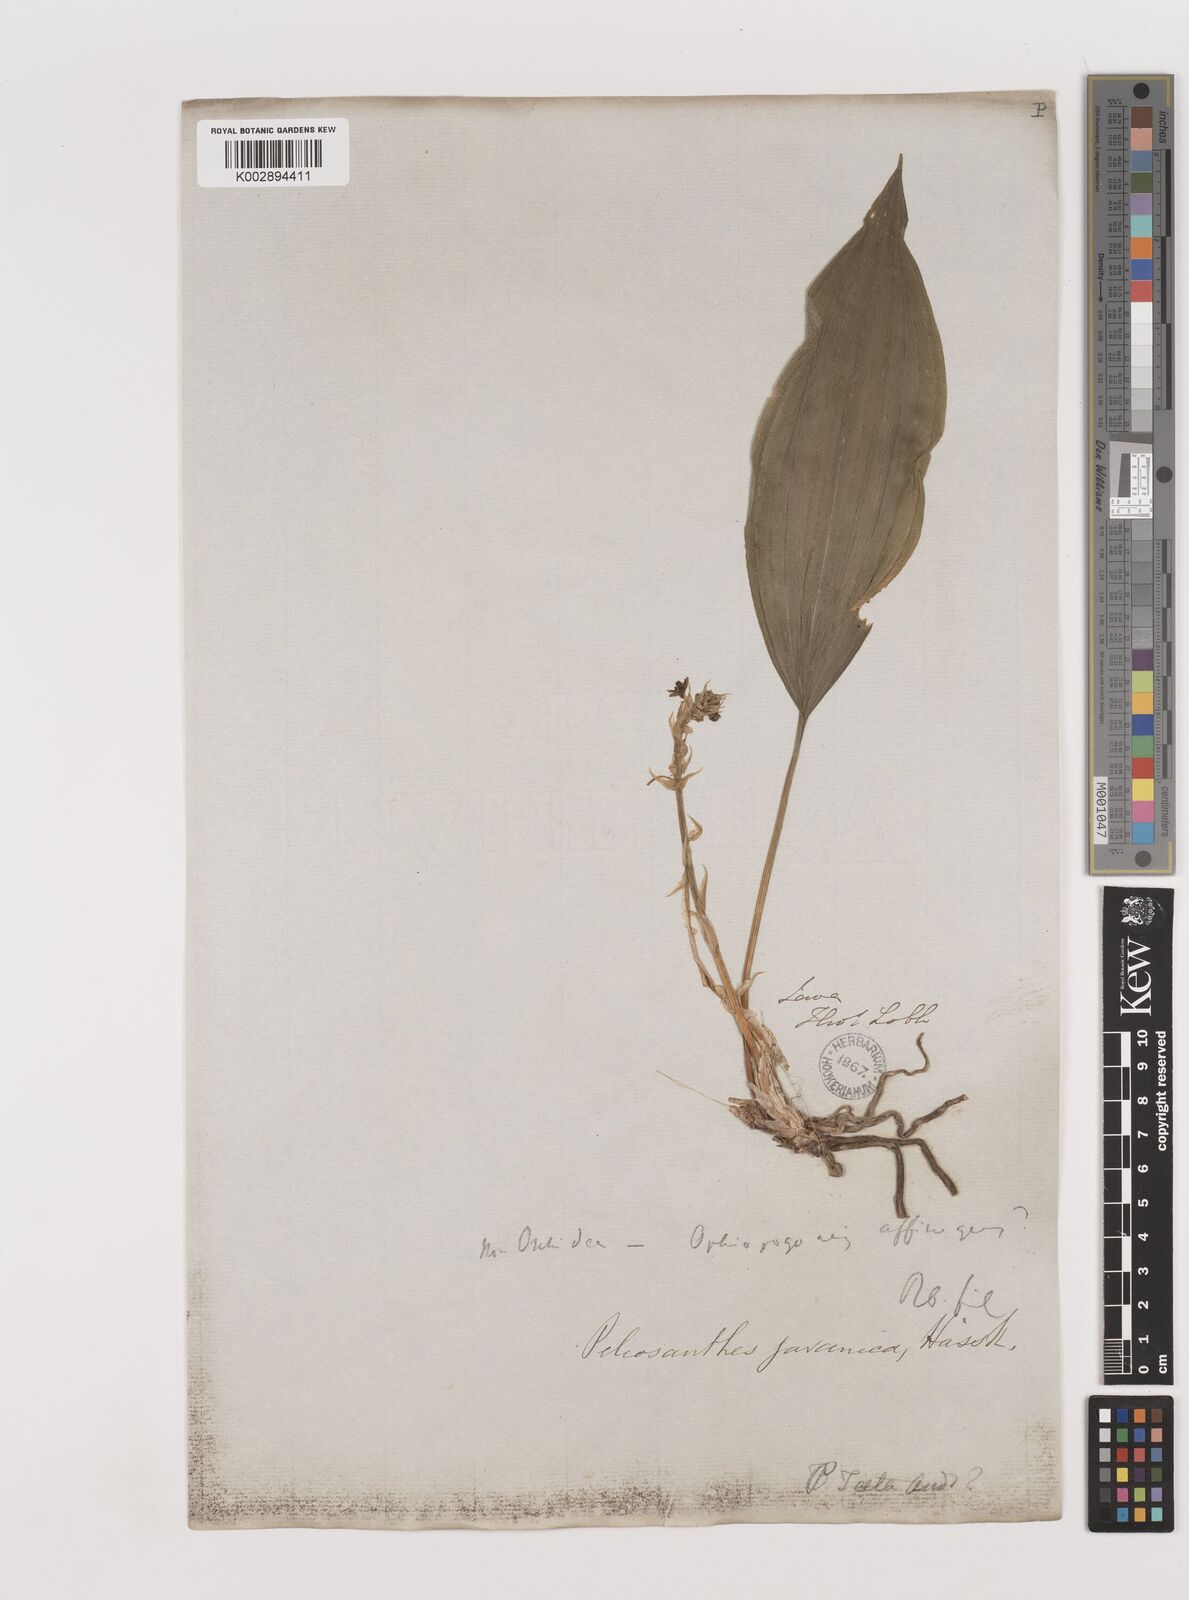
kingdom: Plantae
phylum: Tracheophyta
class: Liliopsida
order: Asparagales
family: Asparagaceae
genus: Peliosanthes
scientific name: Peliosanthes teta
